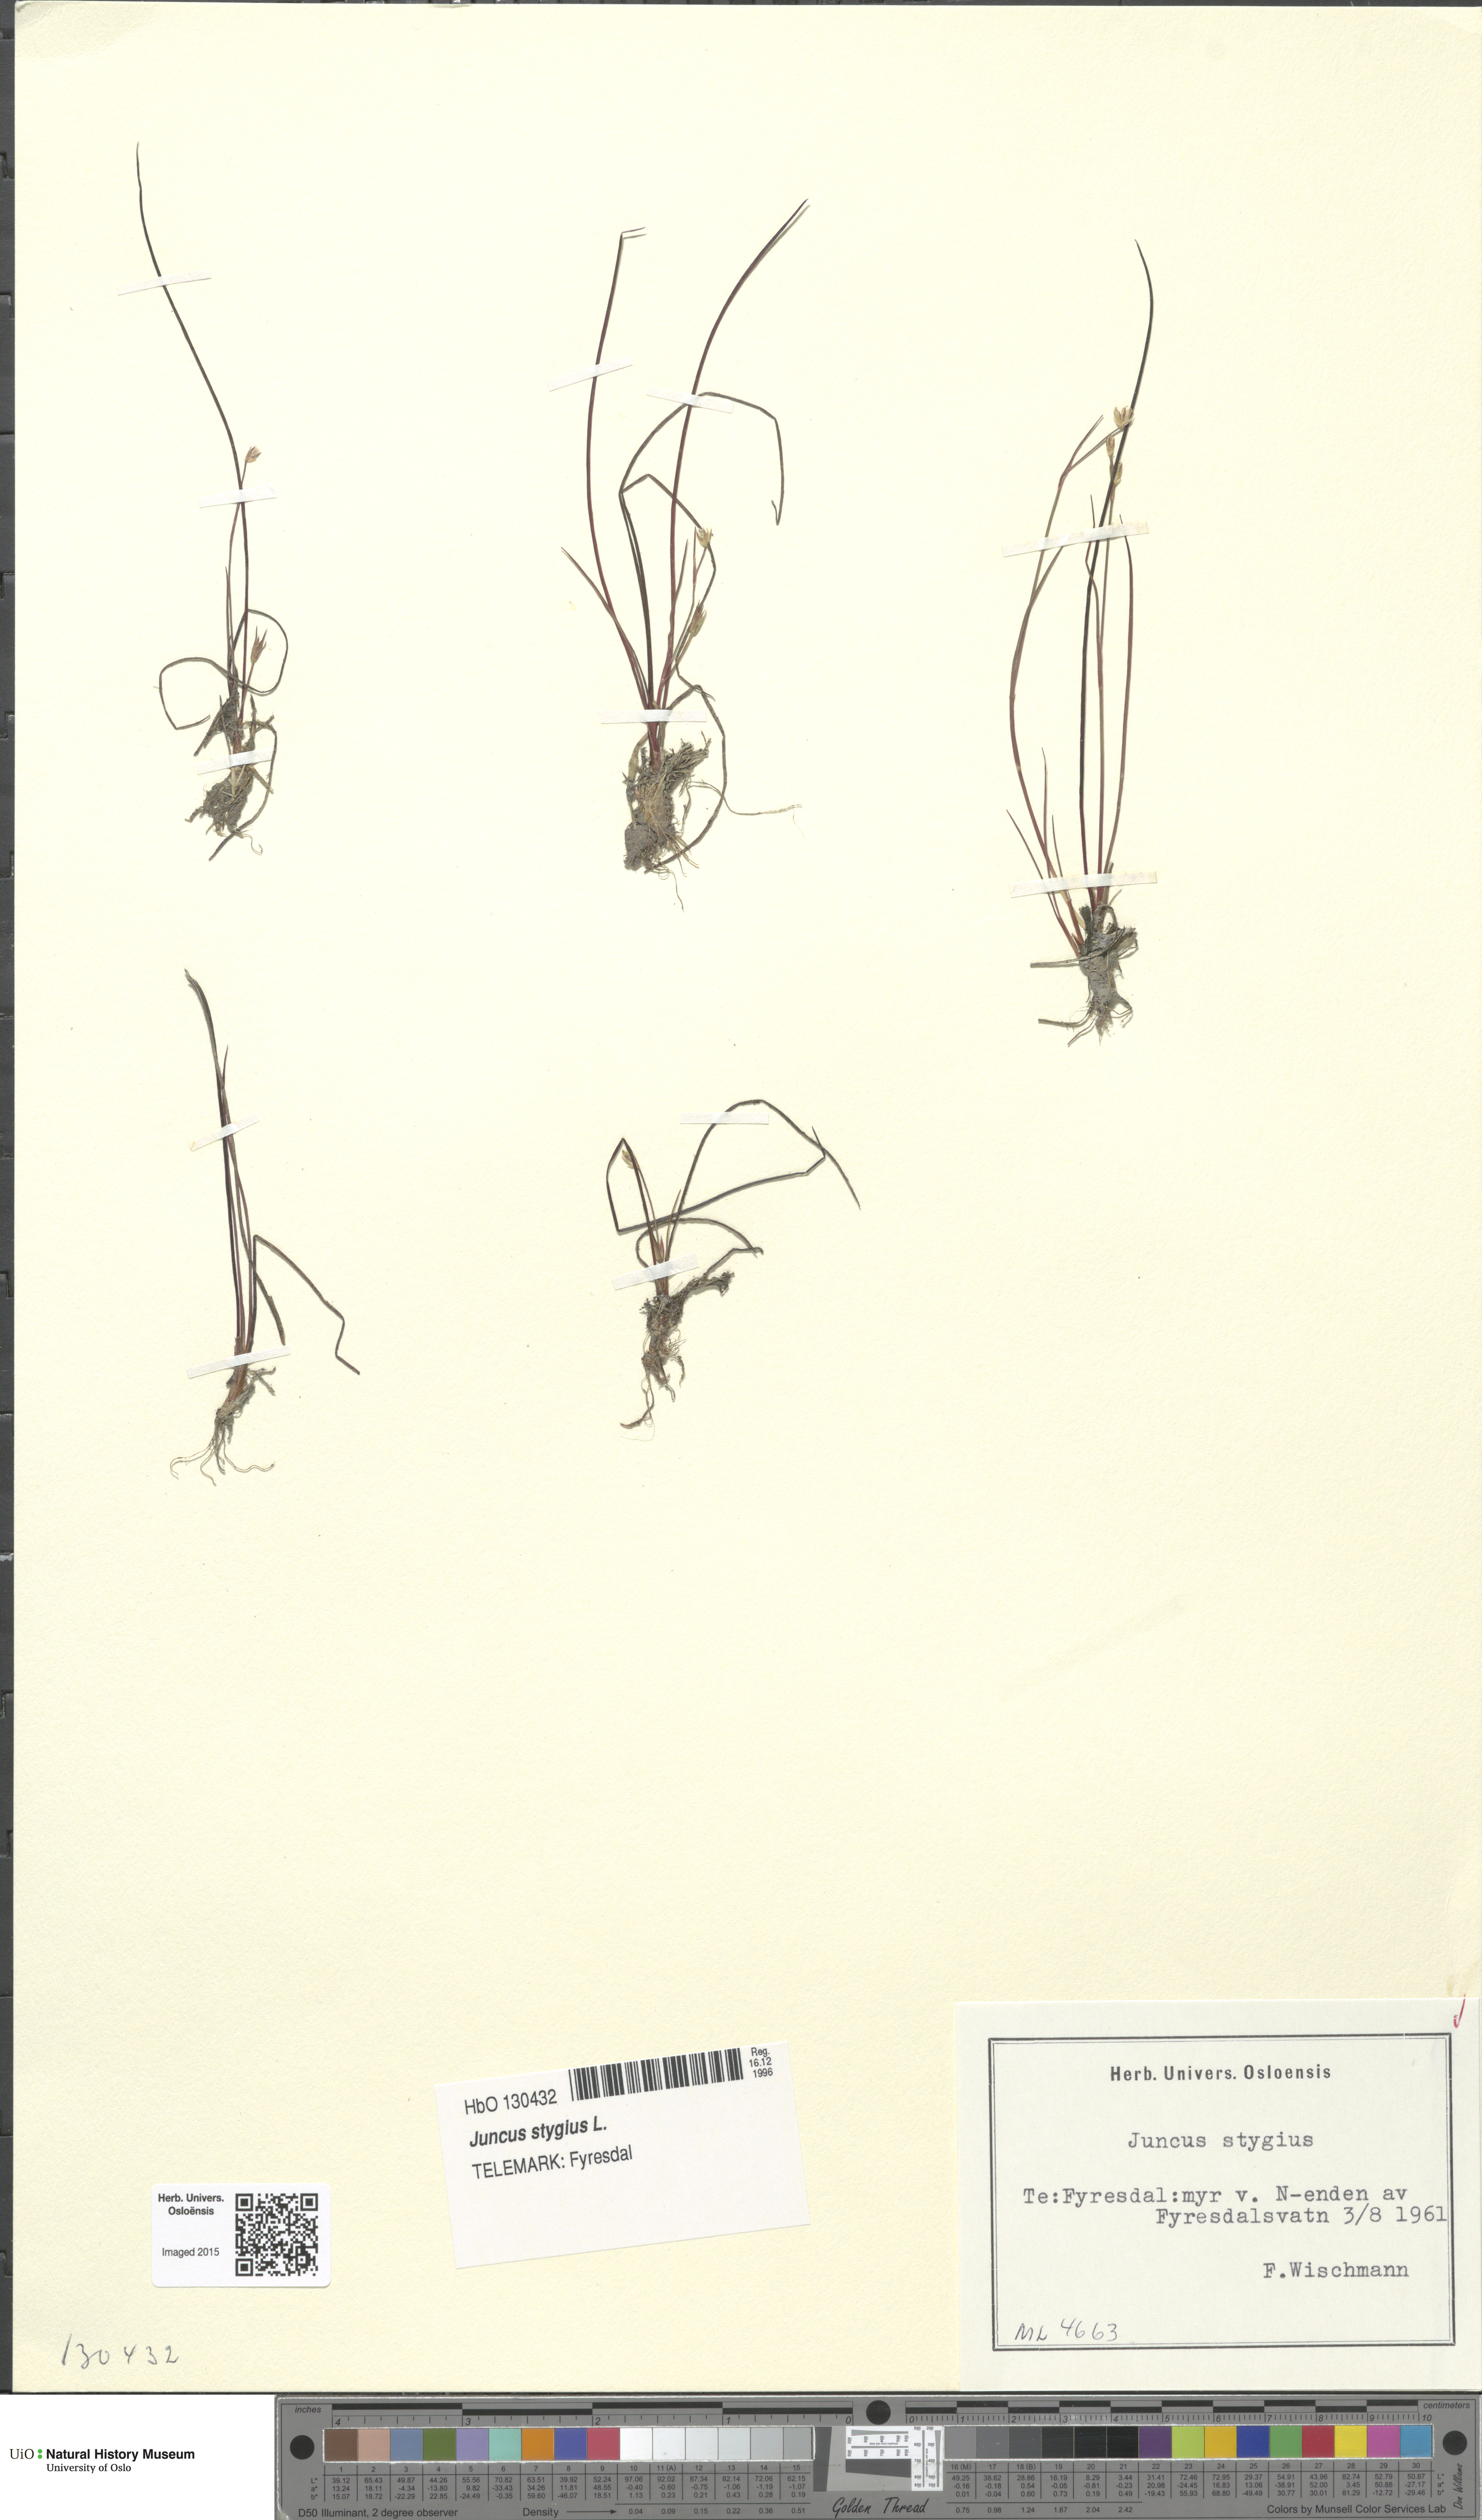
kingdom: Plantae
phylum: Tracheophyta
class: Liliopsida
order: Poales
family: Juncaceae
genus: Juncus
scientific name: Juncus stygius
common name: Bog rush
